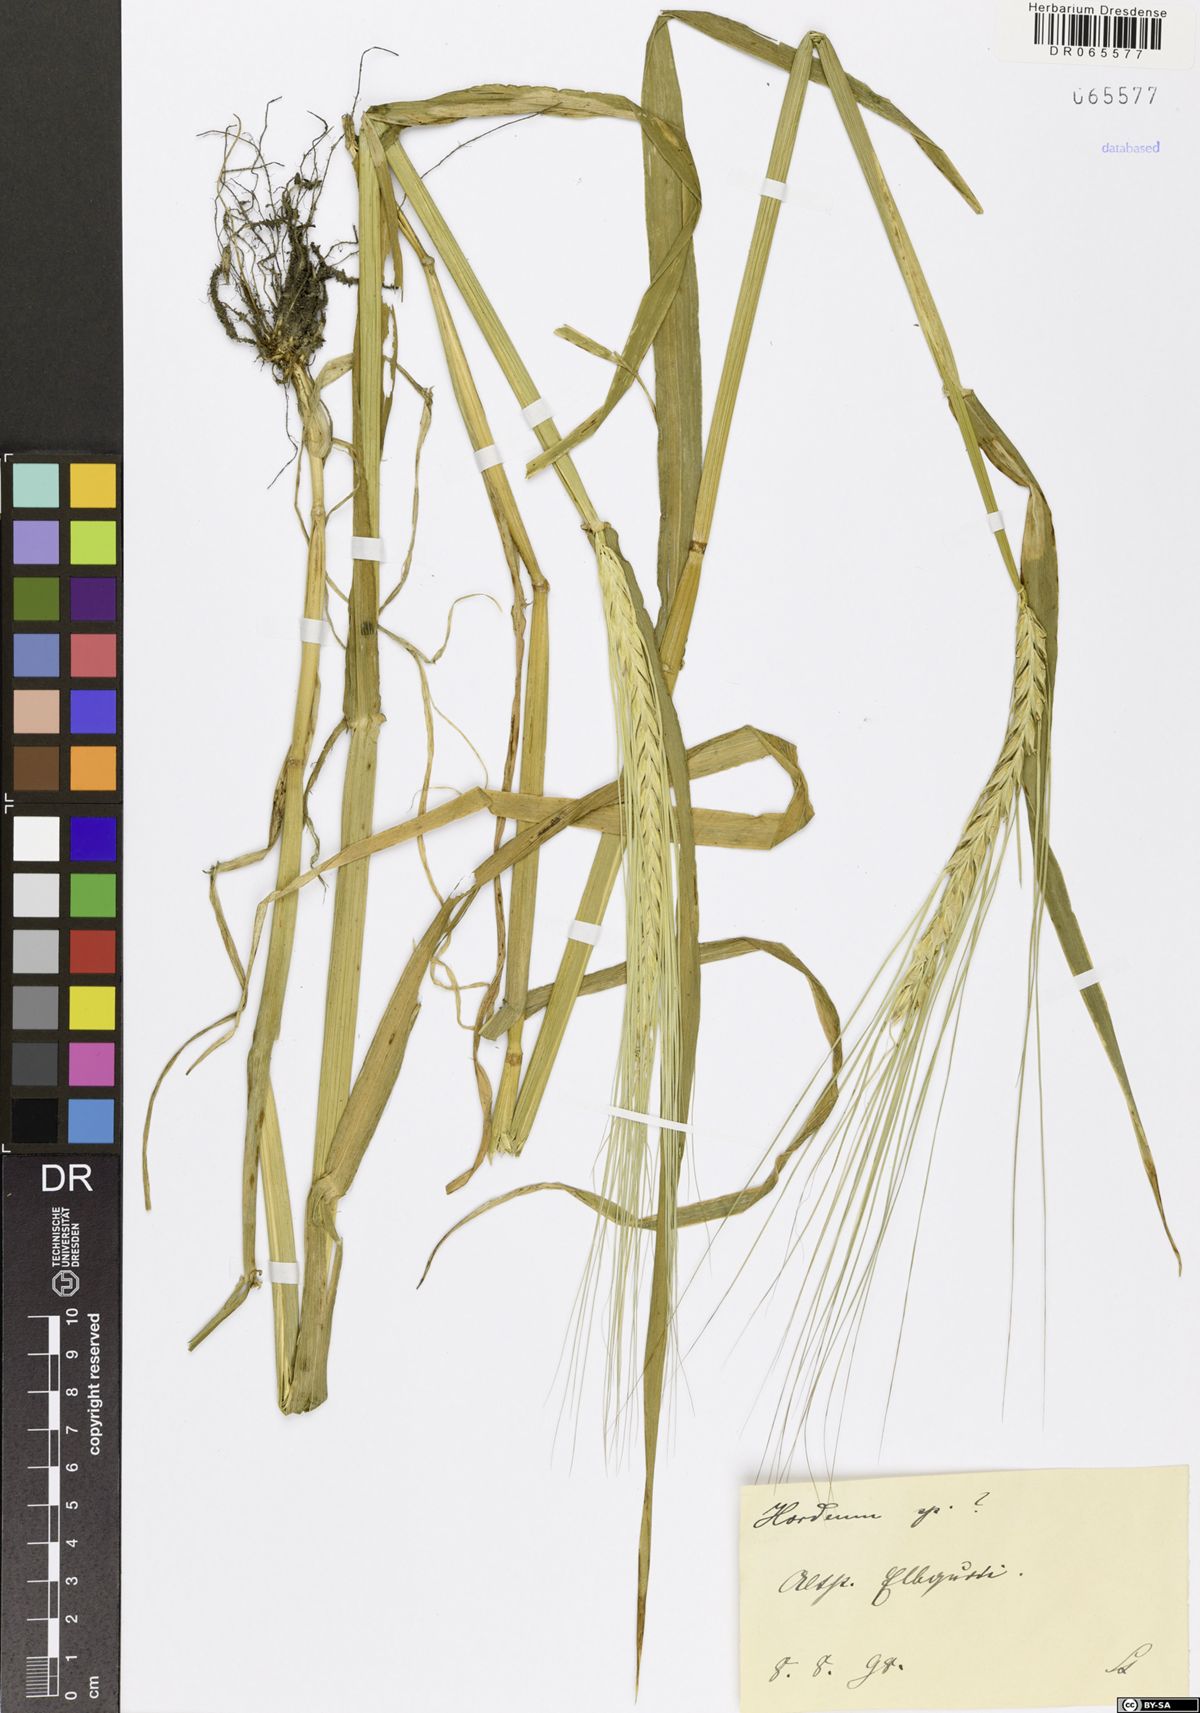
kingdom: Plantae
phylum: Tracheophyta
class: Liliopsida
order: Poales
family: Poaceae
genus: Hordeum
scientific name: Hordeum
